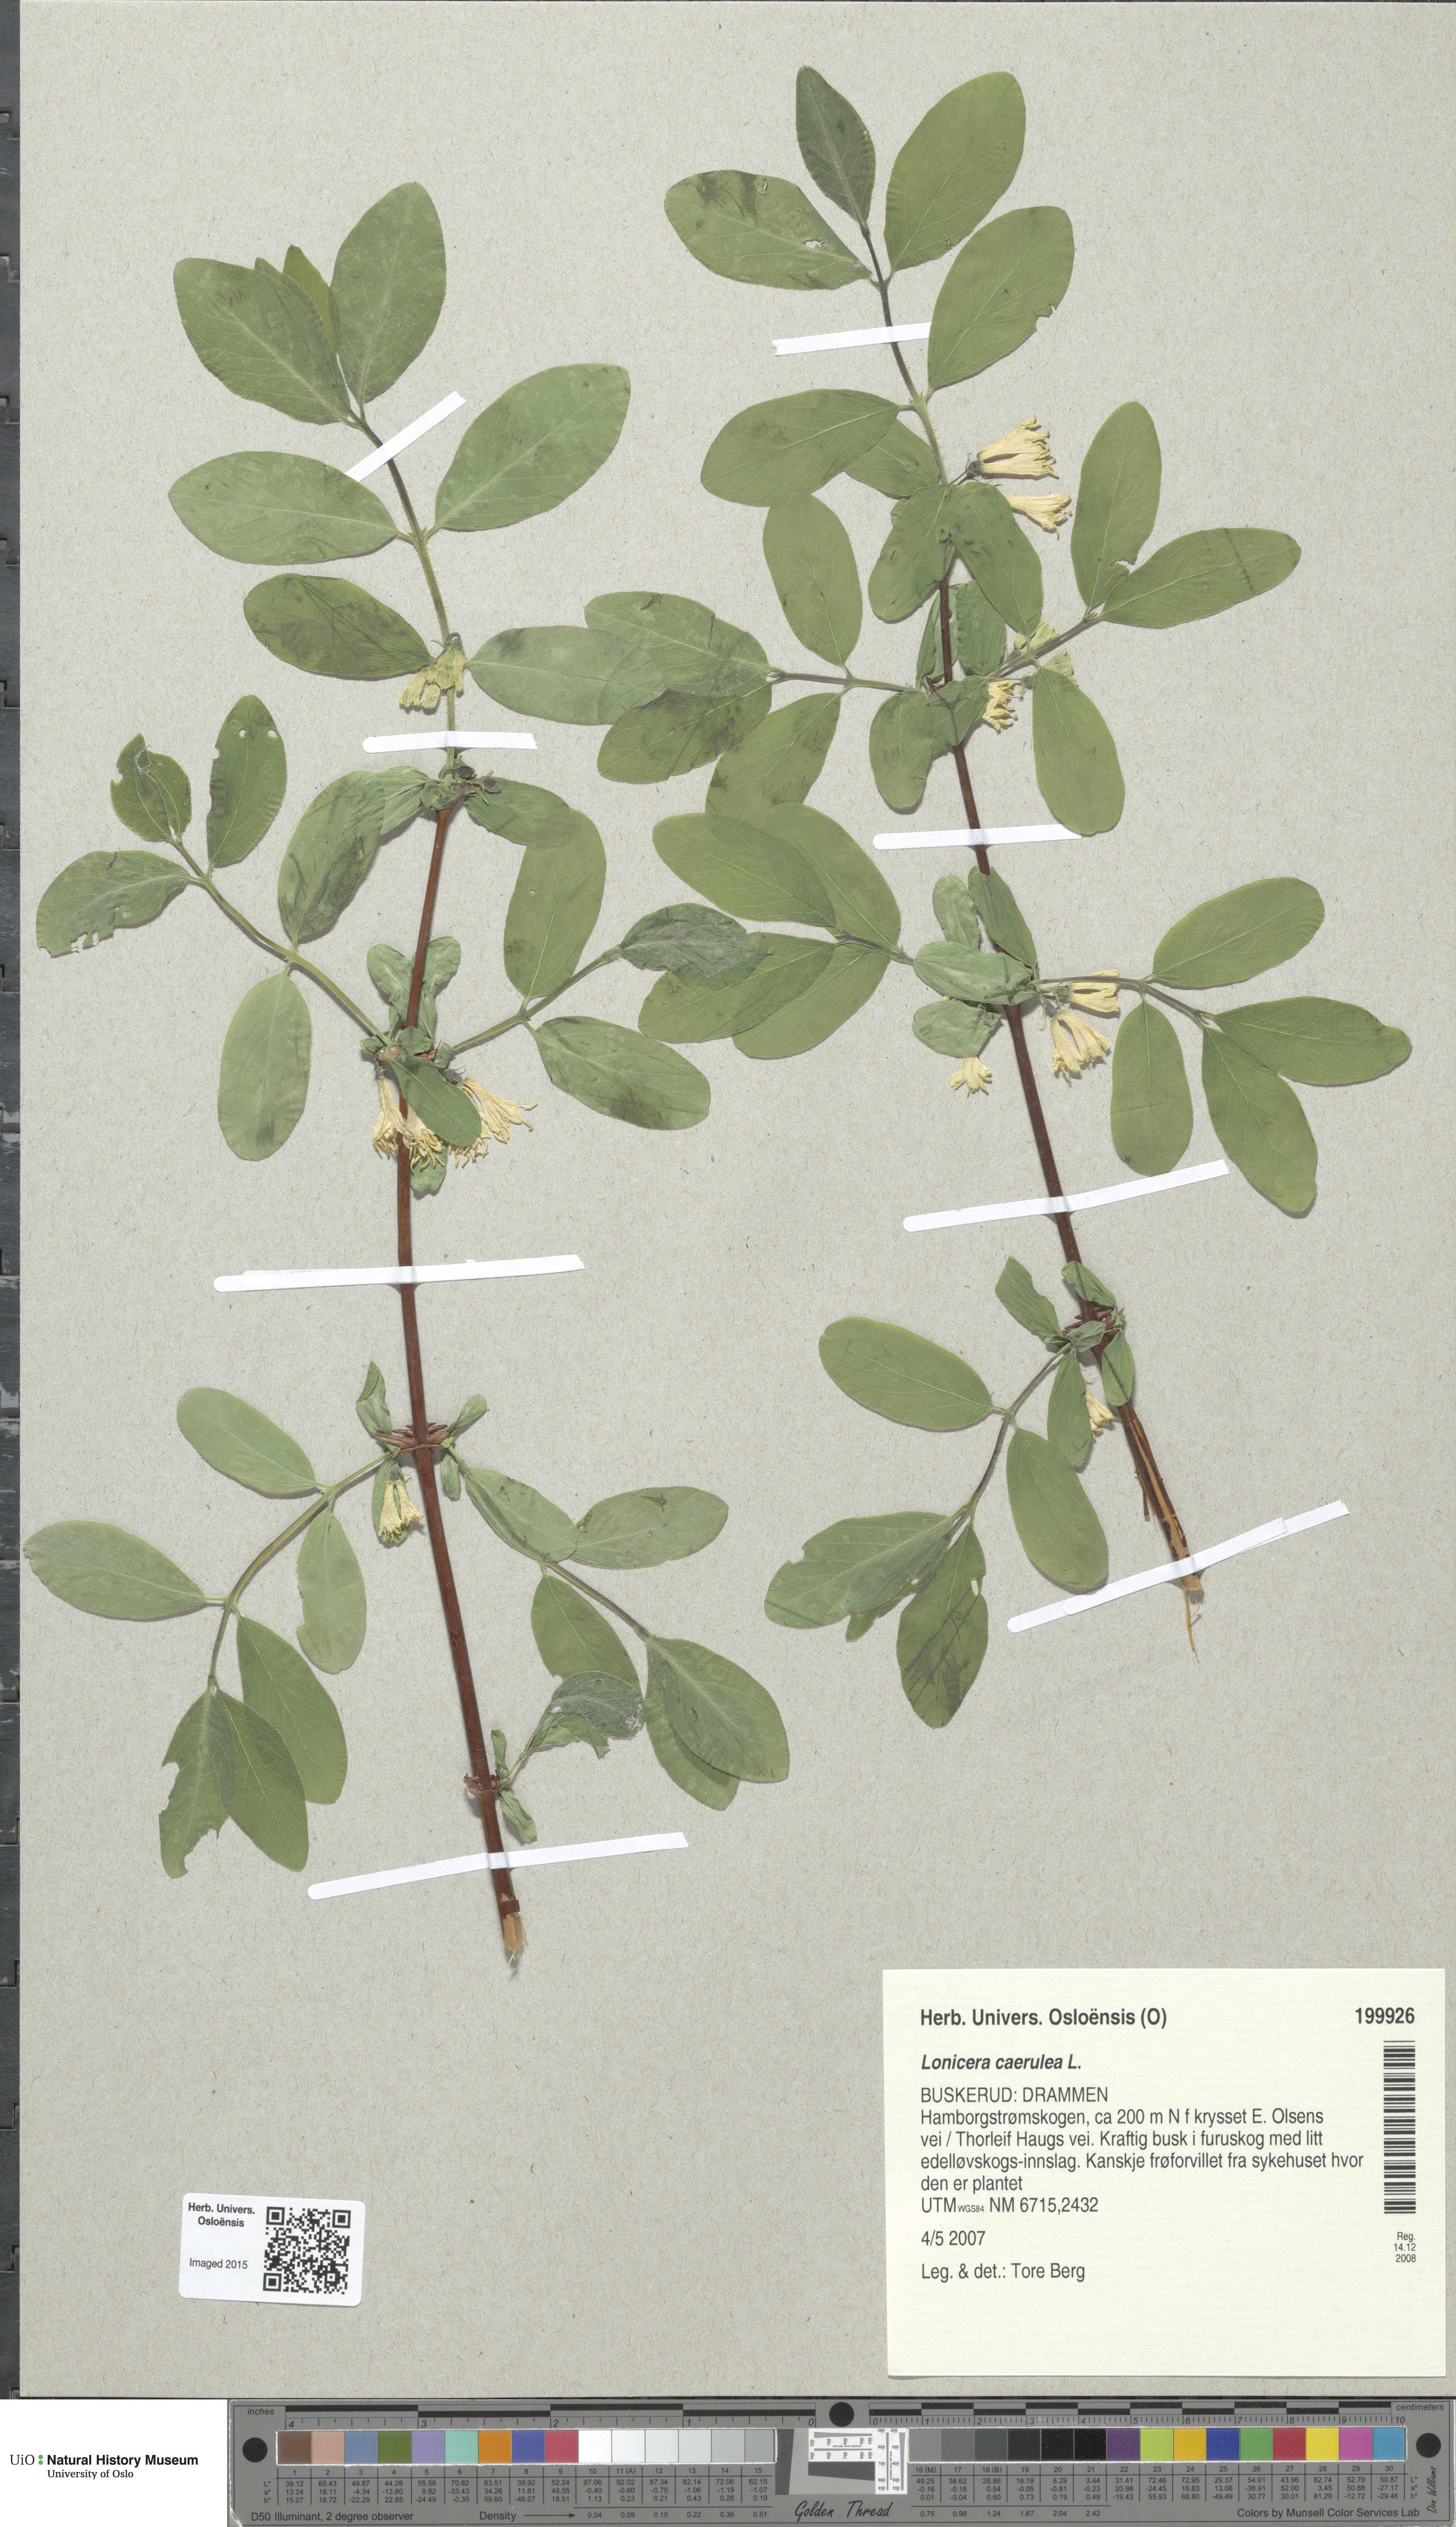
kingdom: Plantae
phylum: Tracheophyta
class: Magnoliopsida
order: Dipsacales
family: Caprifoliaceae
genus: Lonicera
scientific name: Lonicera caerulea
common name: Blue honeysuckle
